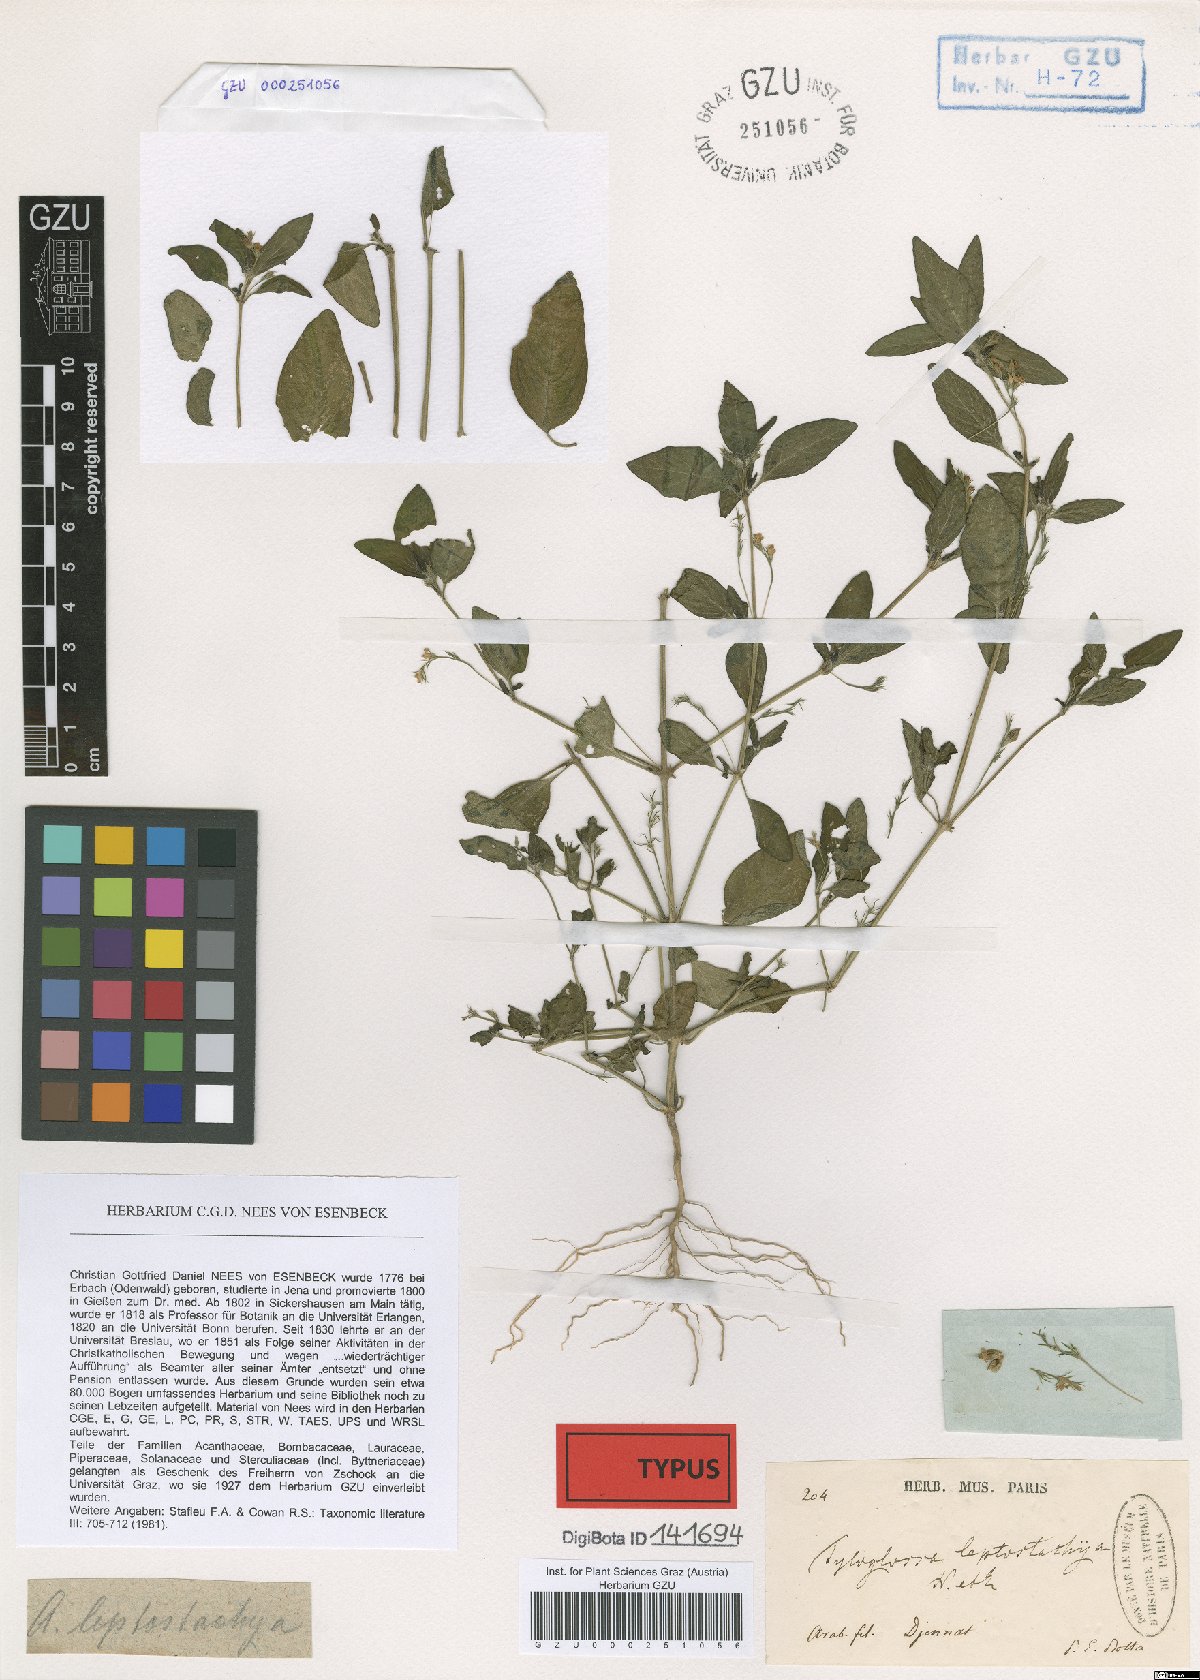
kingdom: Plantae
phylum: Tracheophyta
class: Magnoliopsida
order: Lamiales
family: Acanthaceae
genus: Justicia
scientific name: Justicia calyculata
